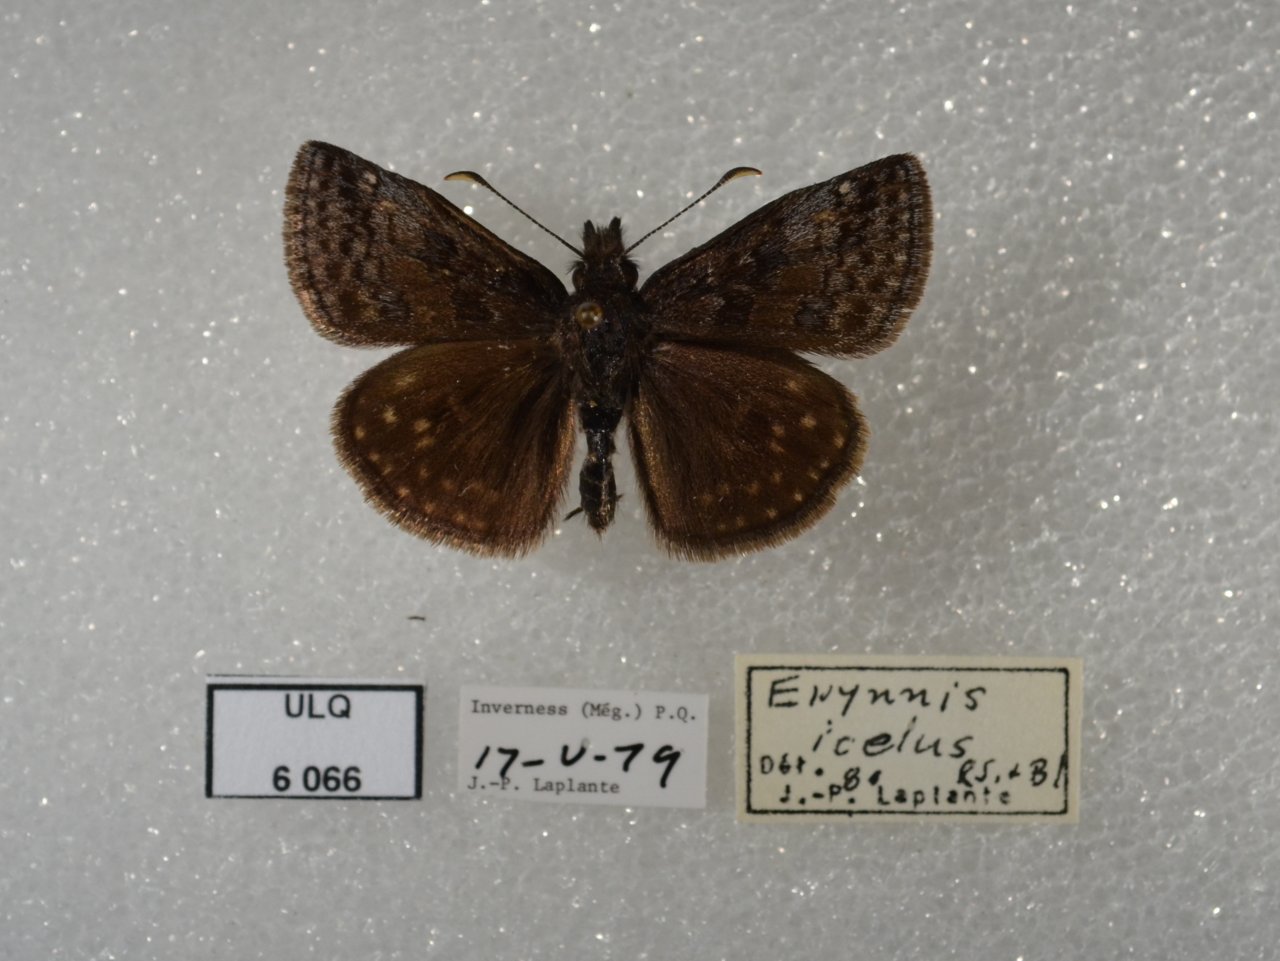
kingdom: Animalia
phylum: Arthropoda
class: Insecta
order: Lepidoptera
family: Hesperiidae
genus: Erynnis
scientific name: Erynnis icelus
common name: Dreamy Duskywing
